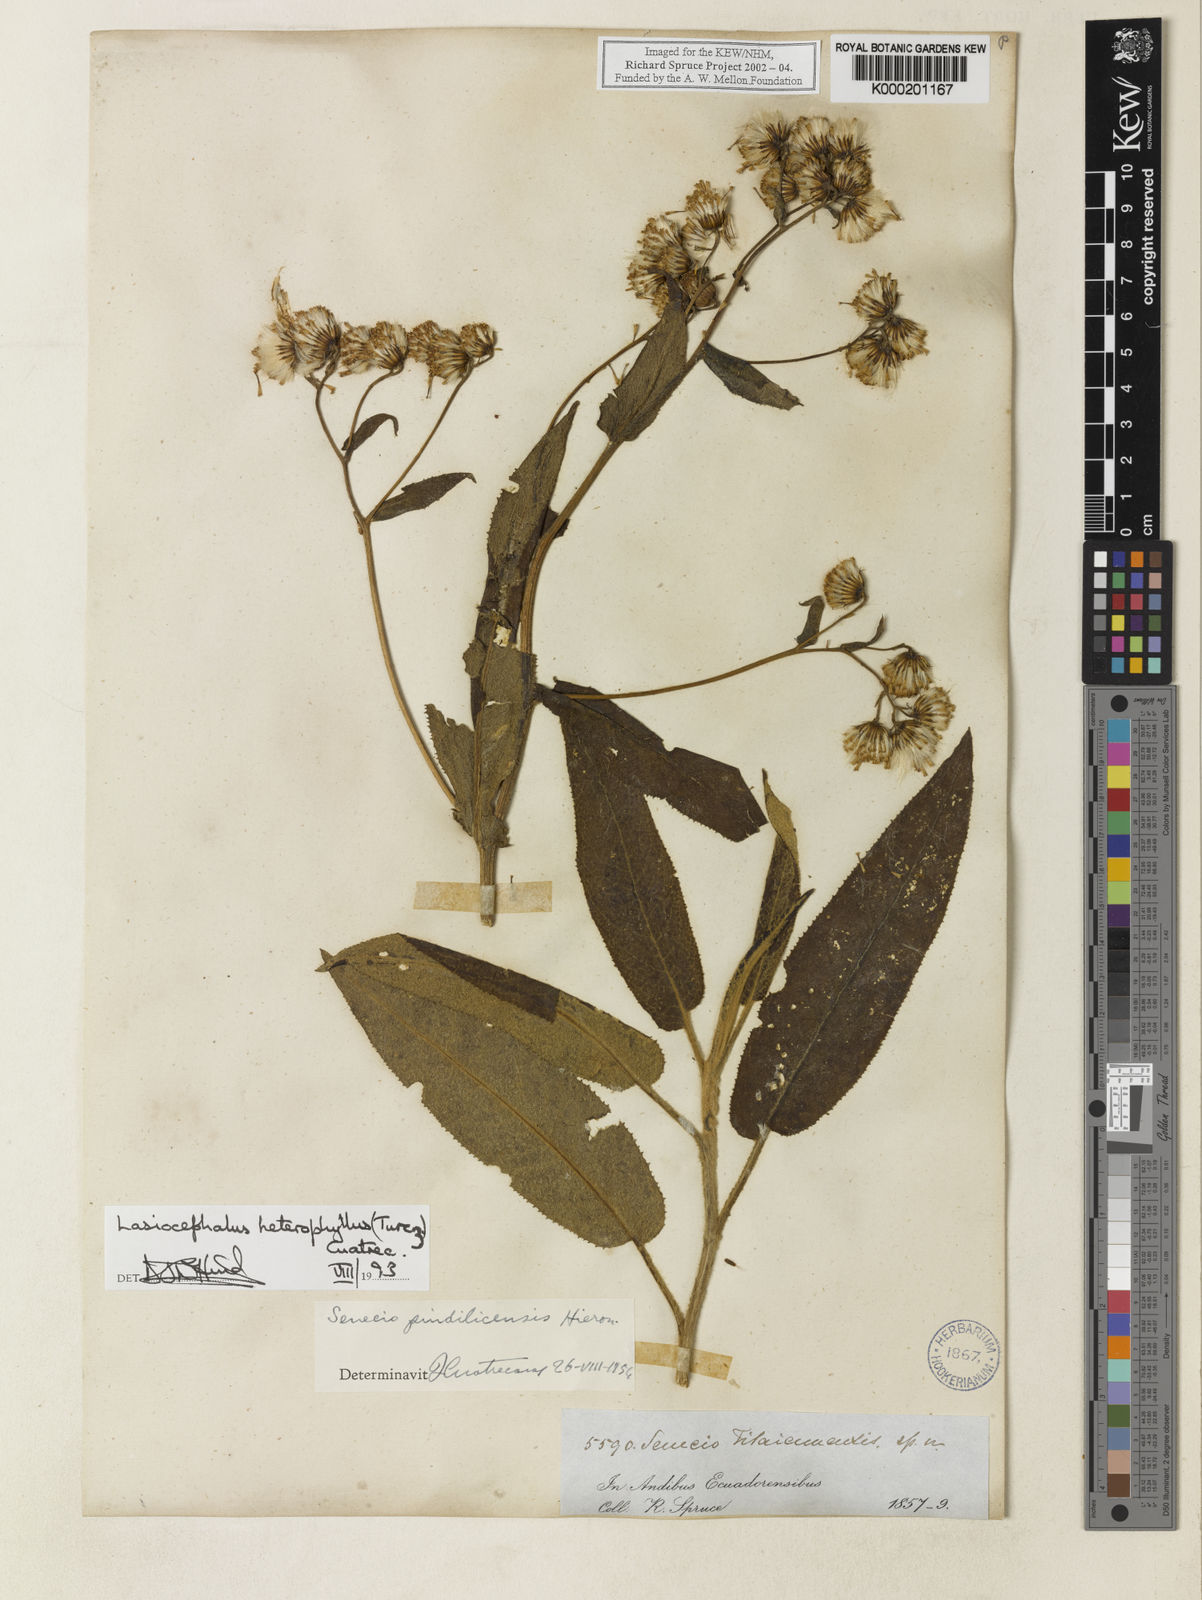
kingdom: Plantae
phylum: Tracheophyta
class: Magnoliopsida
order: Asterales
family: Asteraceae
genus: Aetheolaena
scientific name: Aetheolaena heterophylla
